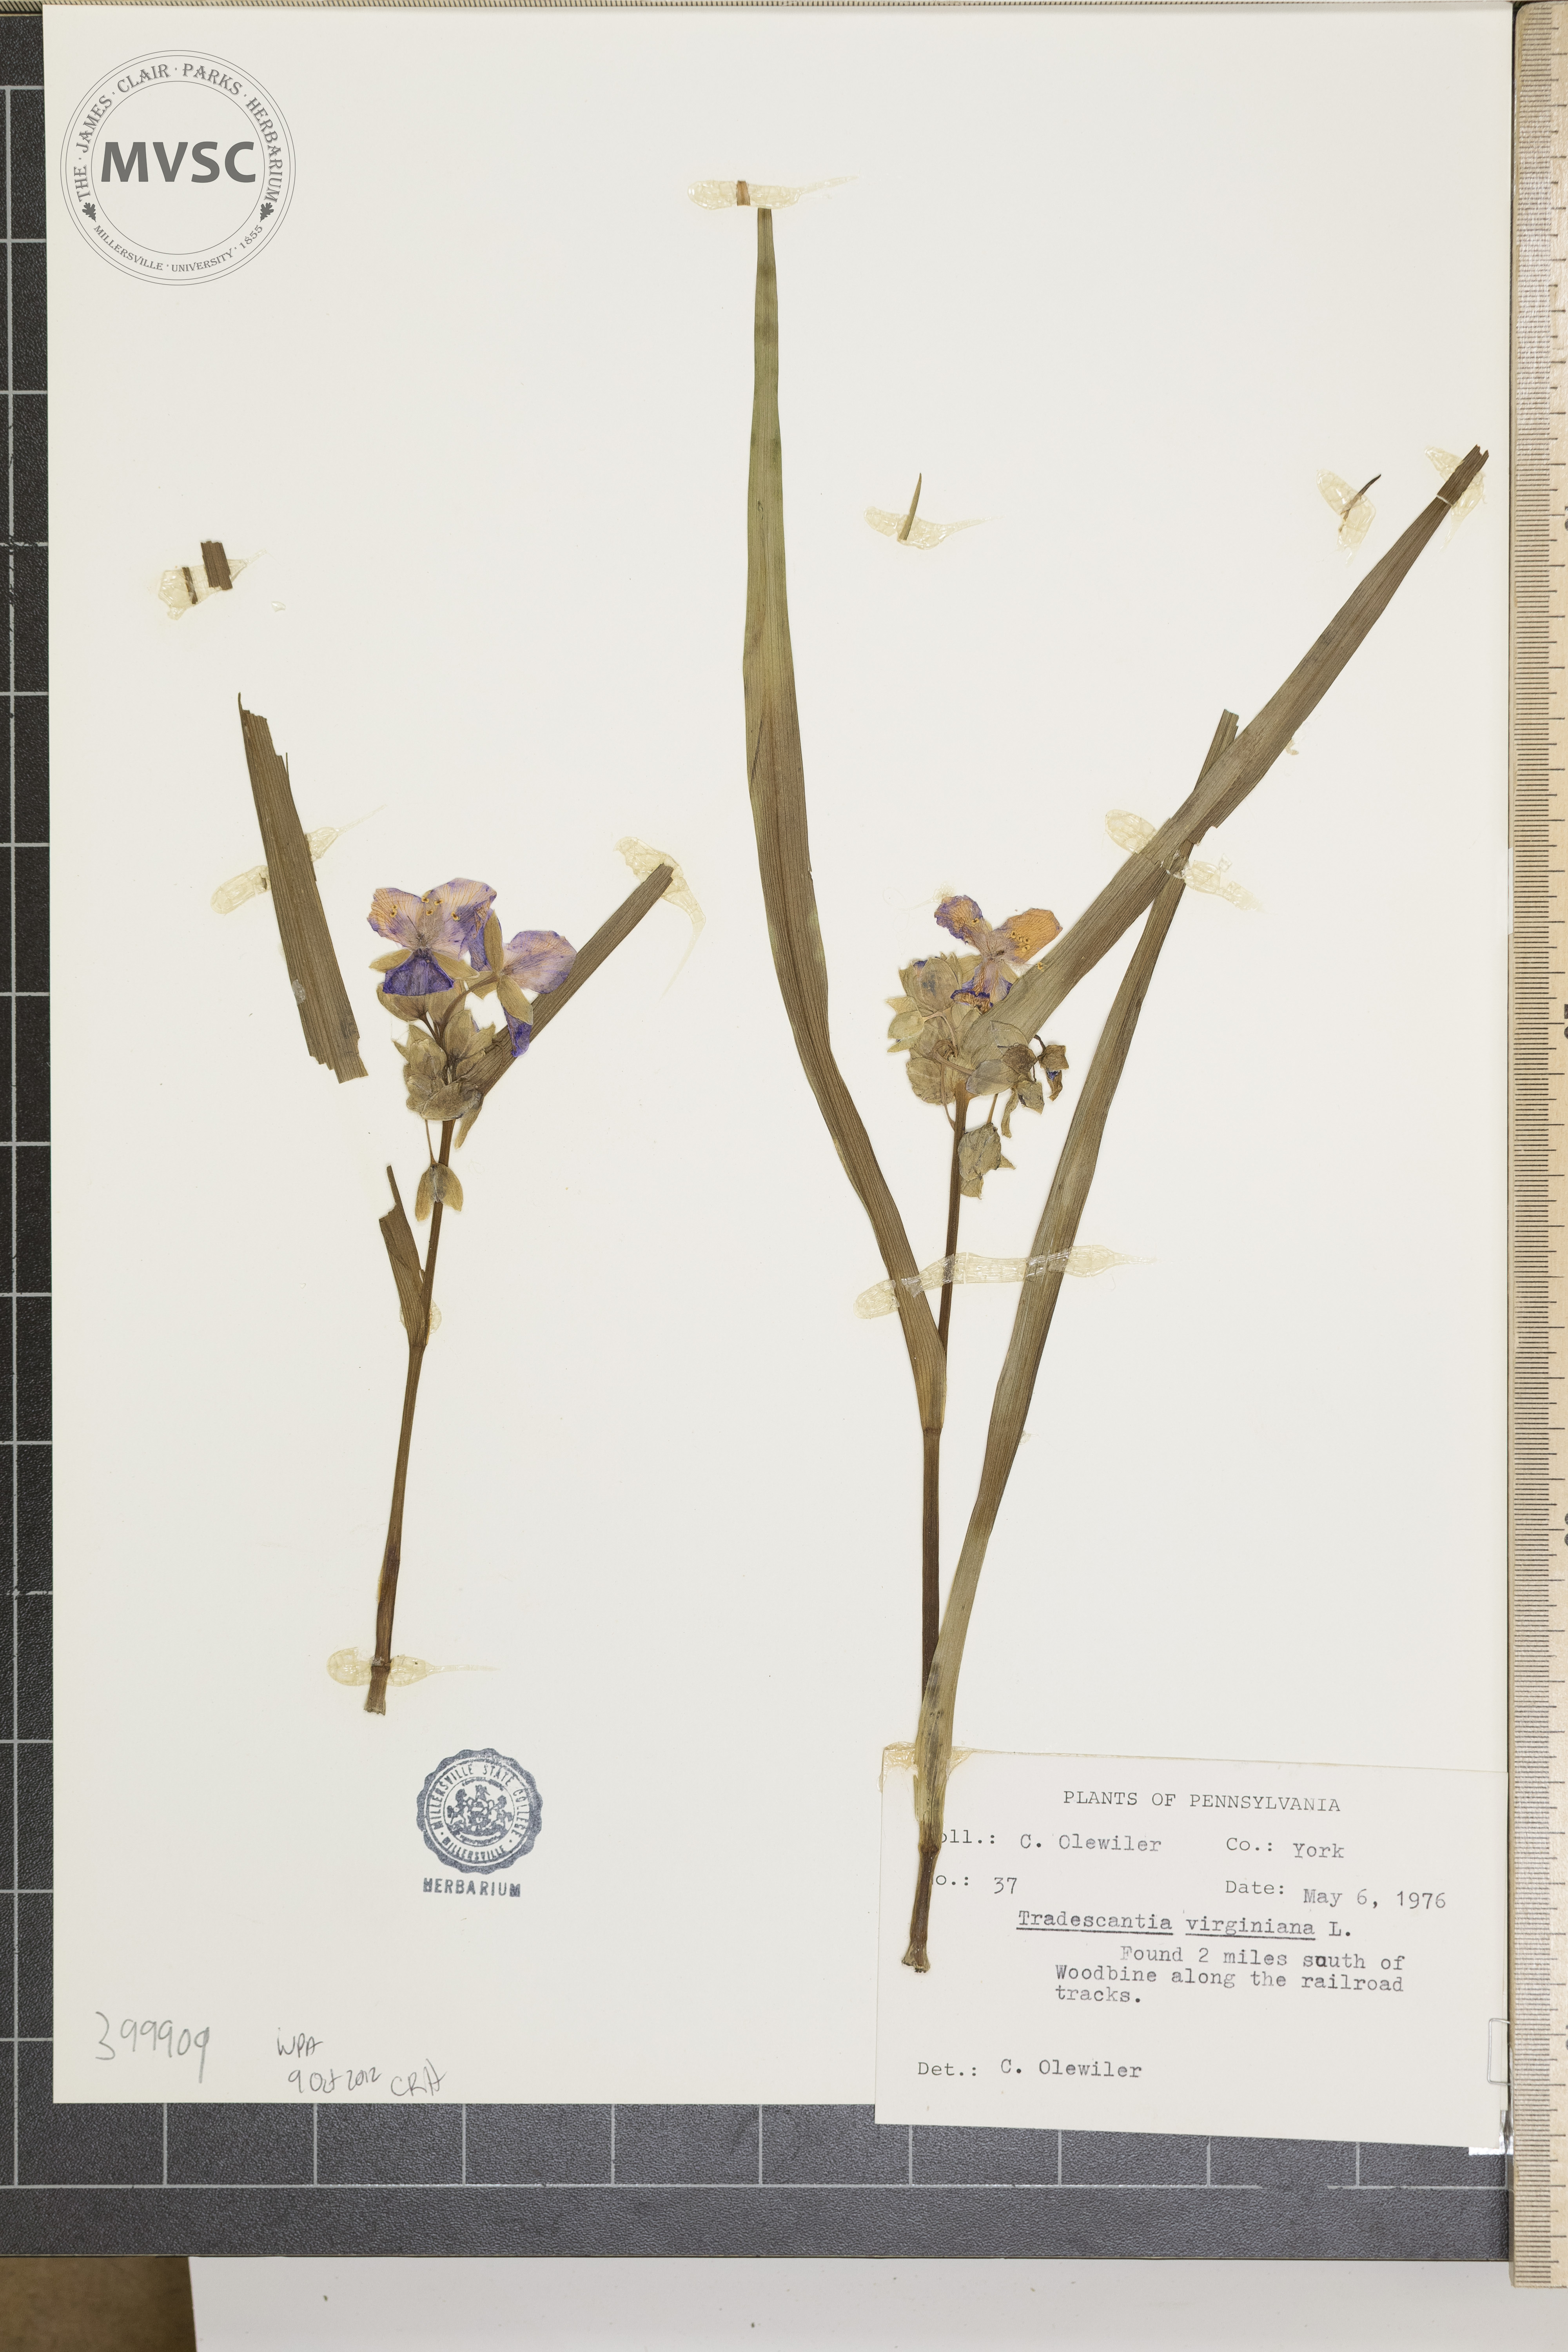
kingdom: Plantae
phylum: Tracheophyta
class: Liliopsida
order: Commelinales
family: Commelinaceae
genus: Tradescantia
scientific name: Tradescantia virginiana
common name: Virginia spiderwort
